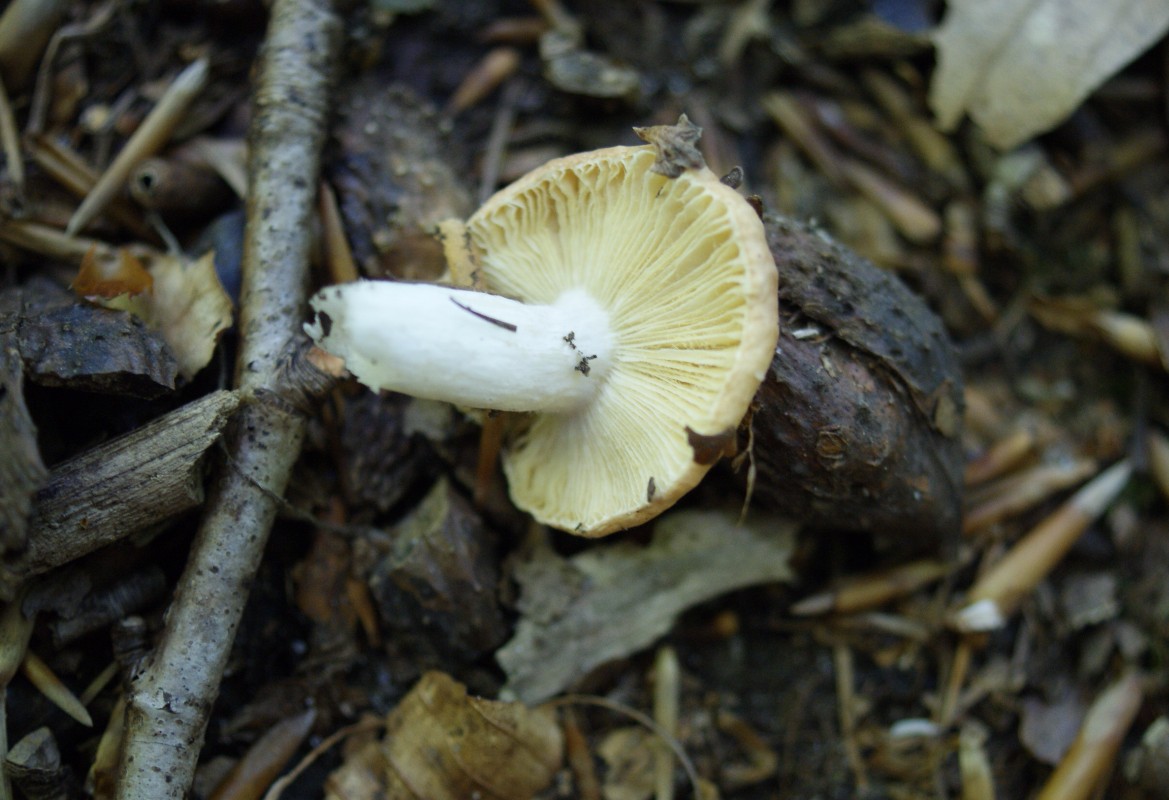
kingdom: Fungi
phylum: Basidiomycota
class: Agaricomycetes
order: Russulales
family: Russulaceae
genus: Russula
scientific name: Russula risigallina
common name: abrikos-skørhat
